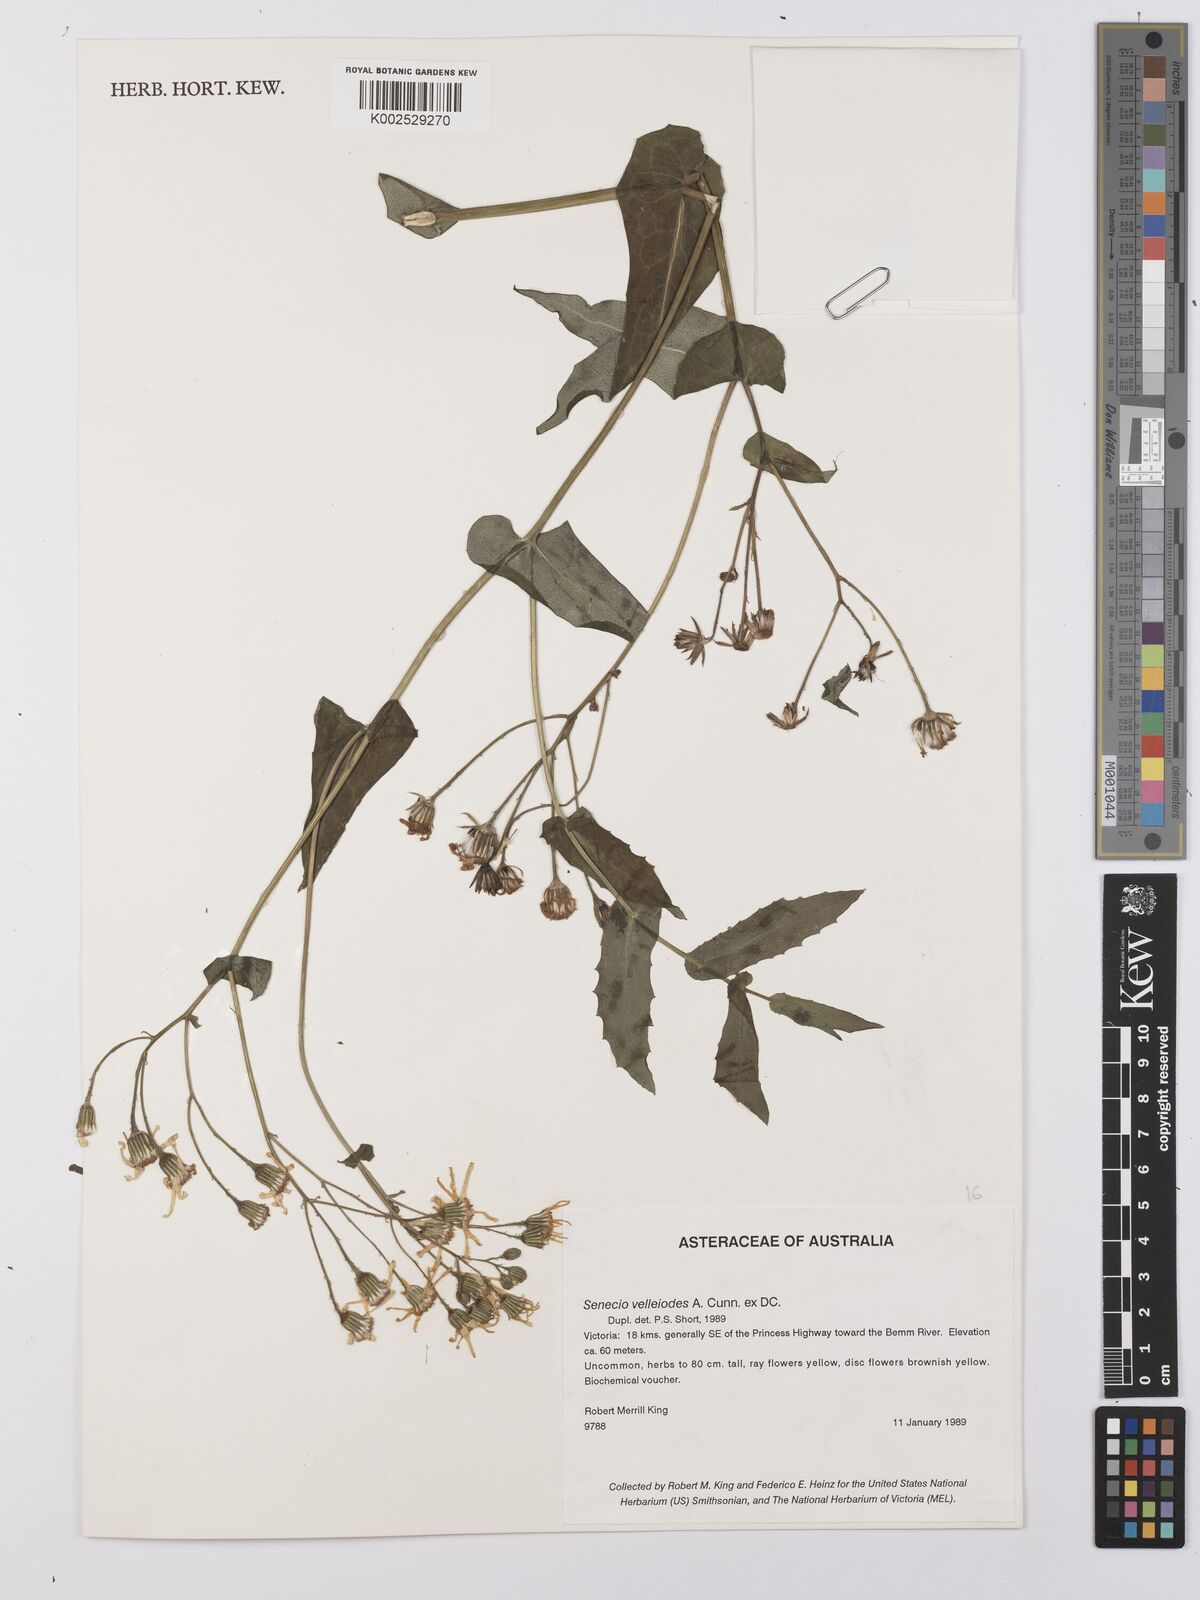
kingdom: Plantae
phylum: Tracheophyta
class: Magnoliopsida
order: Asterales
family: Asteraceae
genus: Lordhowea
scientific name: Lordhowea velleioides
